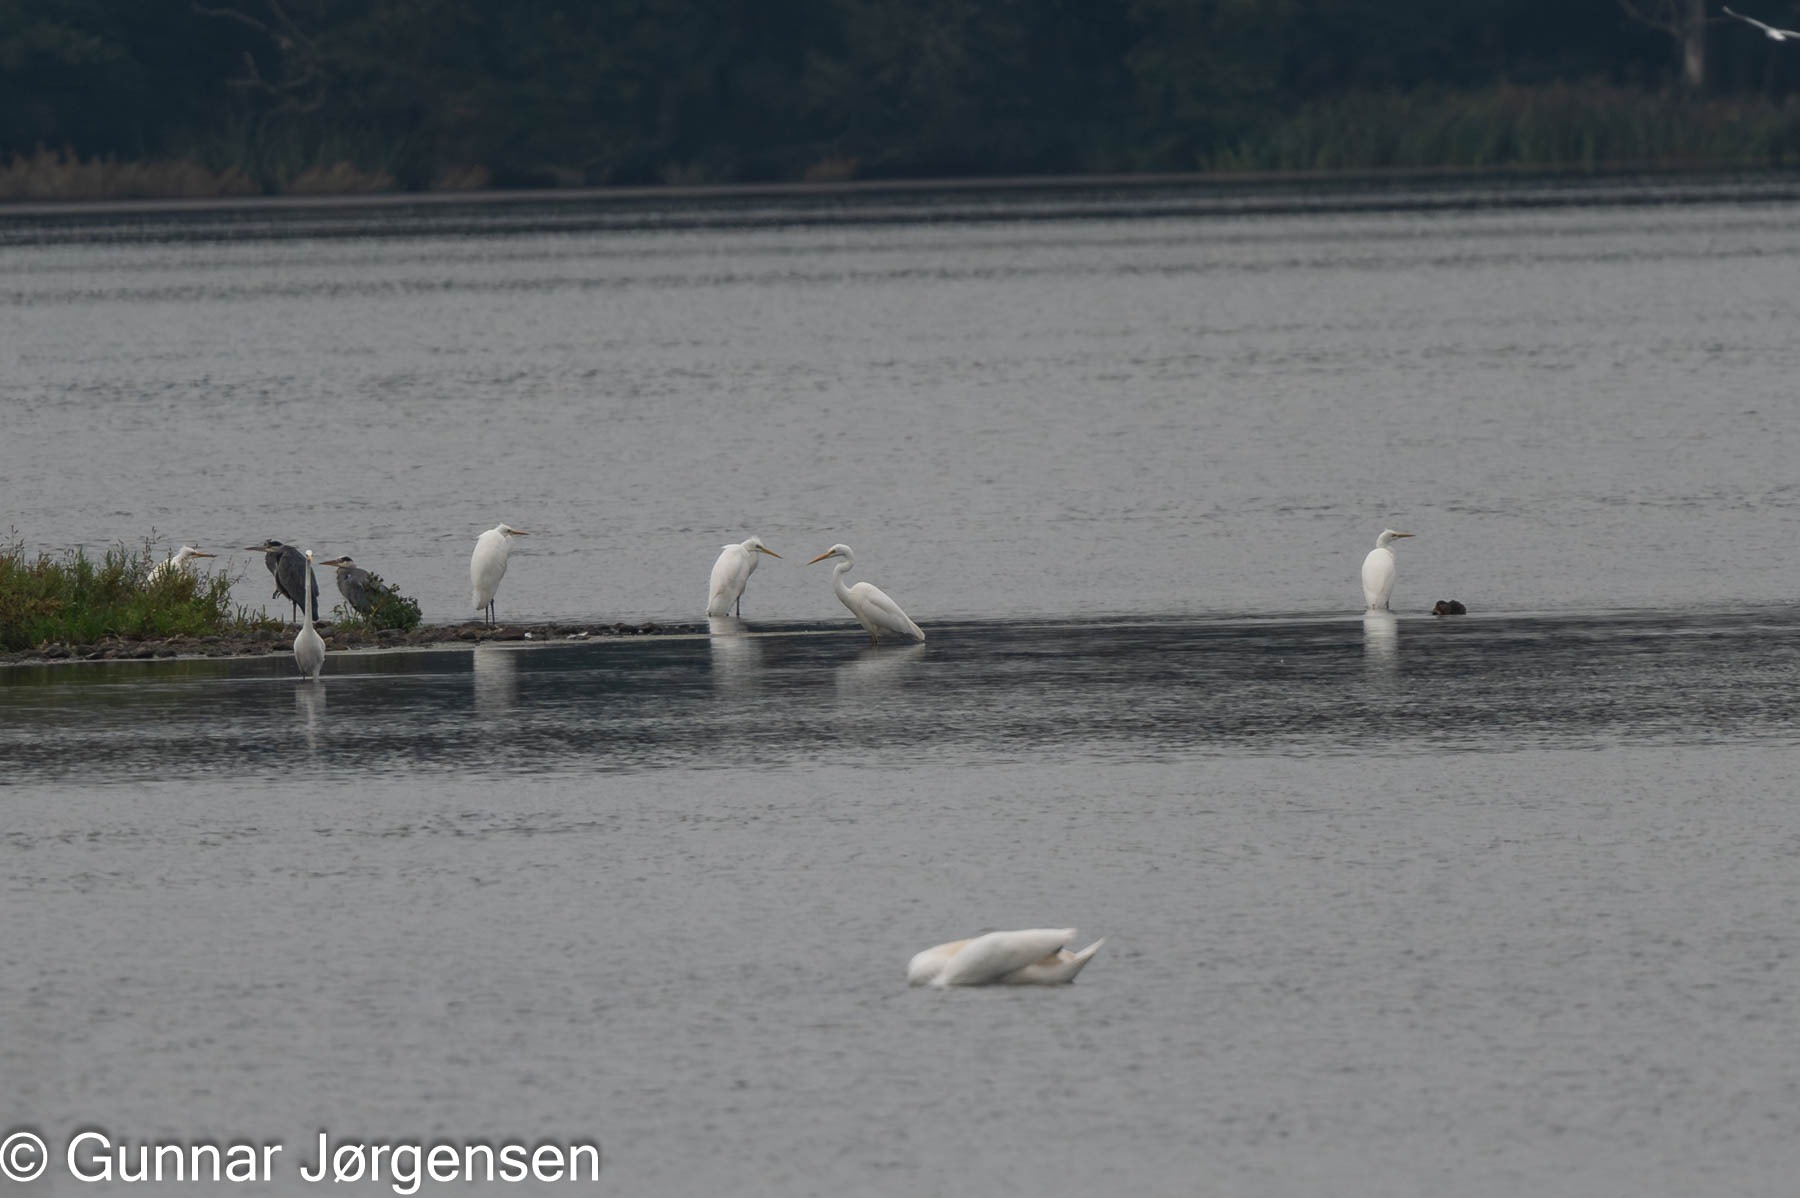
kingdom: Animalia
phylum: Chordata
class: Aves
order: Pelecaniformes
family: Ardeidae
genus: Ardea
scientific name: Ardea alba
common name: Sølvhejre
